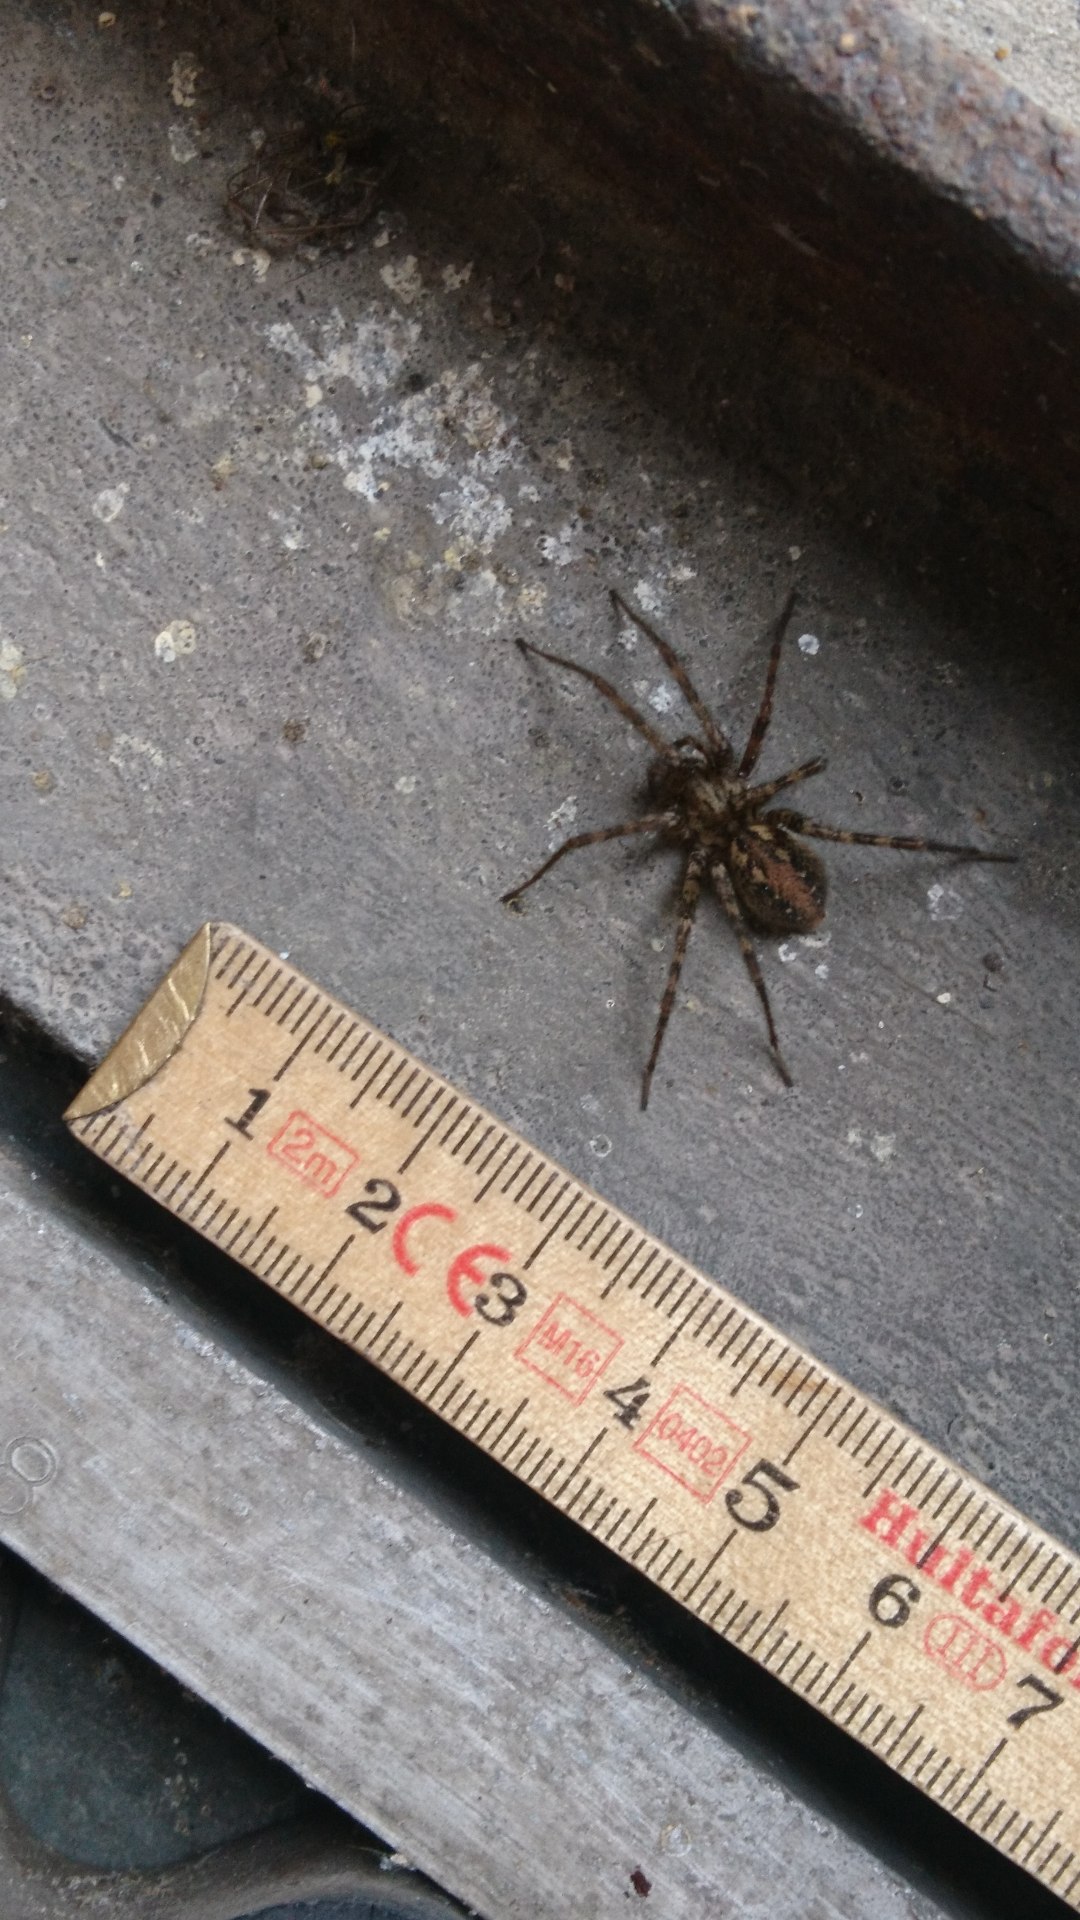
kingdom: Animalia
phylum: Arthropoda
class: Arachnida
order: Araneae
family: Agelenidae
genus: Tegenaria
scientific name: Tegenaria ferruginea
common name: Rustrød husedderkop
